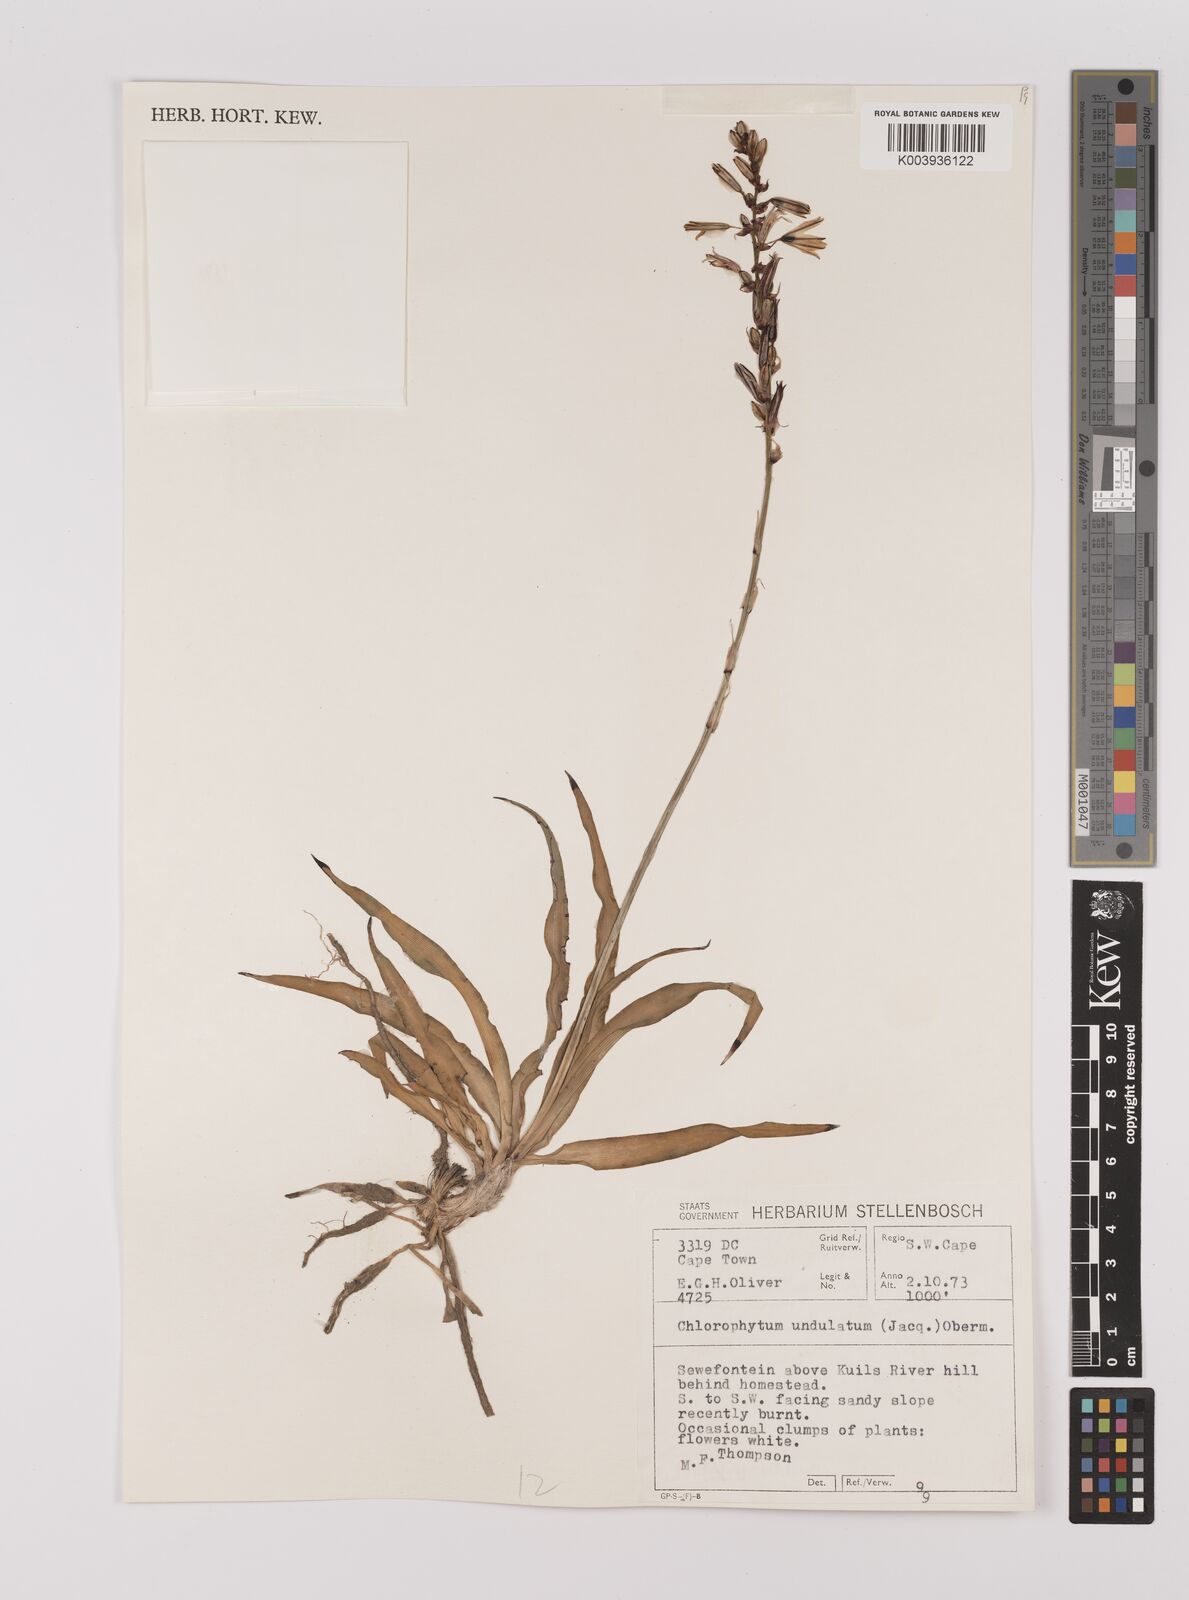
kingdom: Plantae
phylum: Tracheophyta
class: Liliopsida
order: Asparagales
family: Asparagaceae
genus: Chlorophytum
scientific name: Chlorophytum graminifolium
